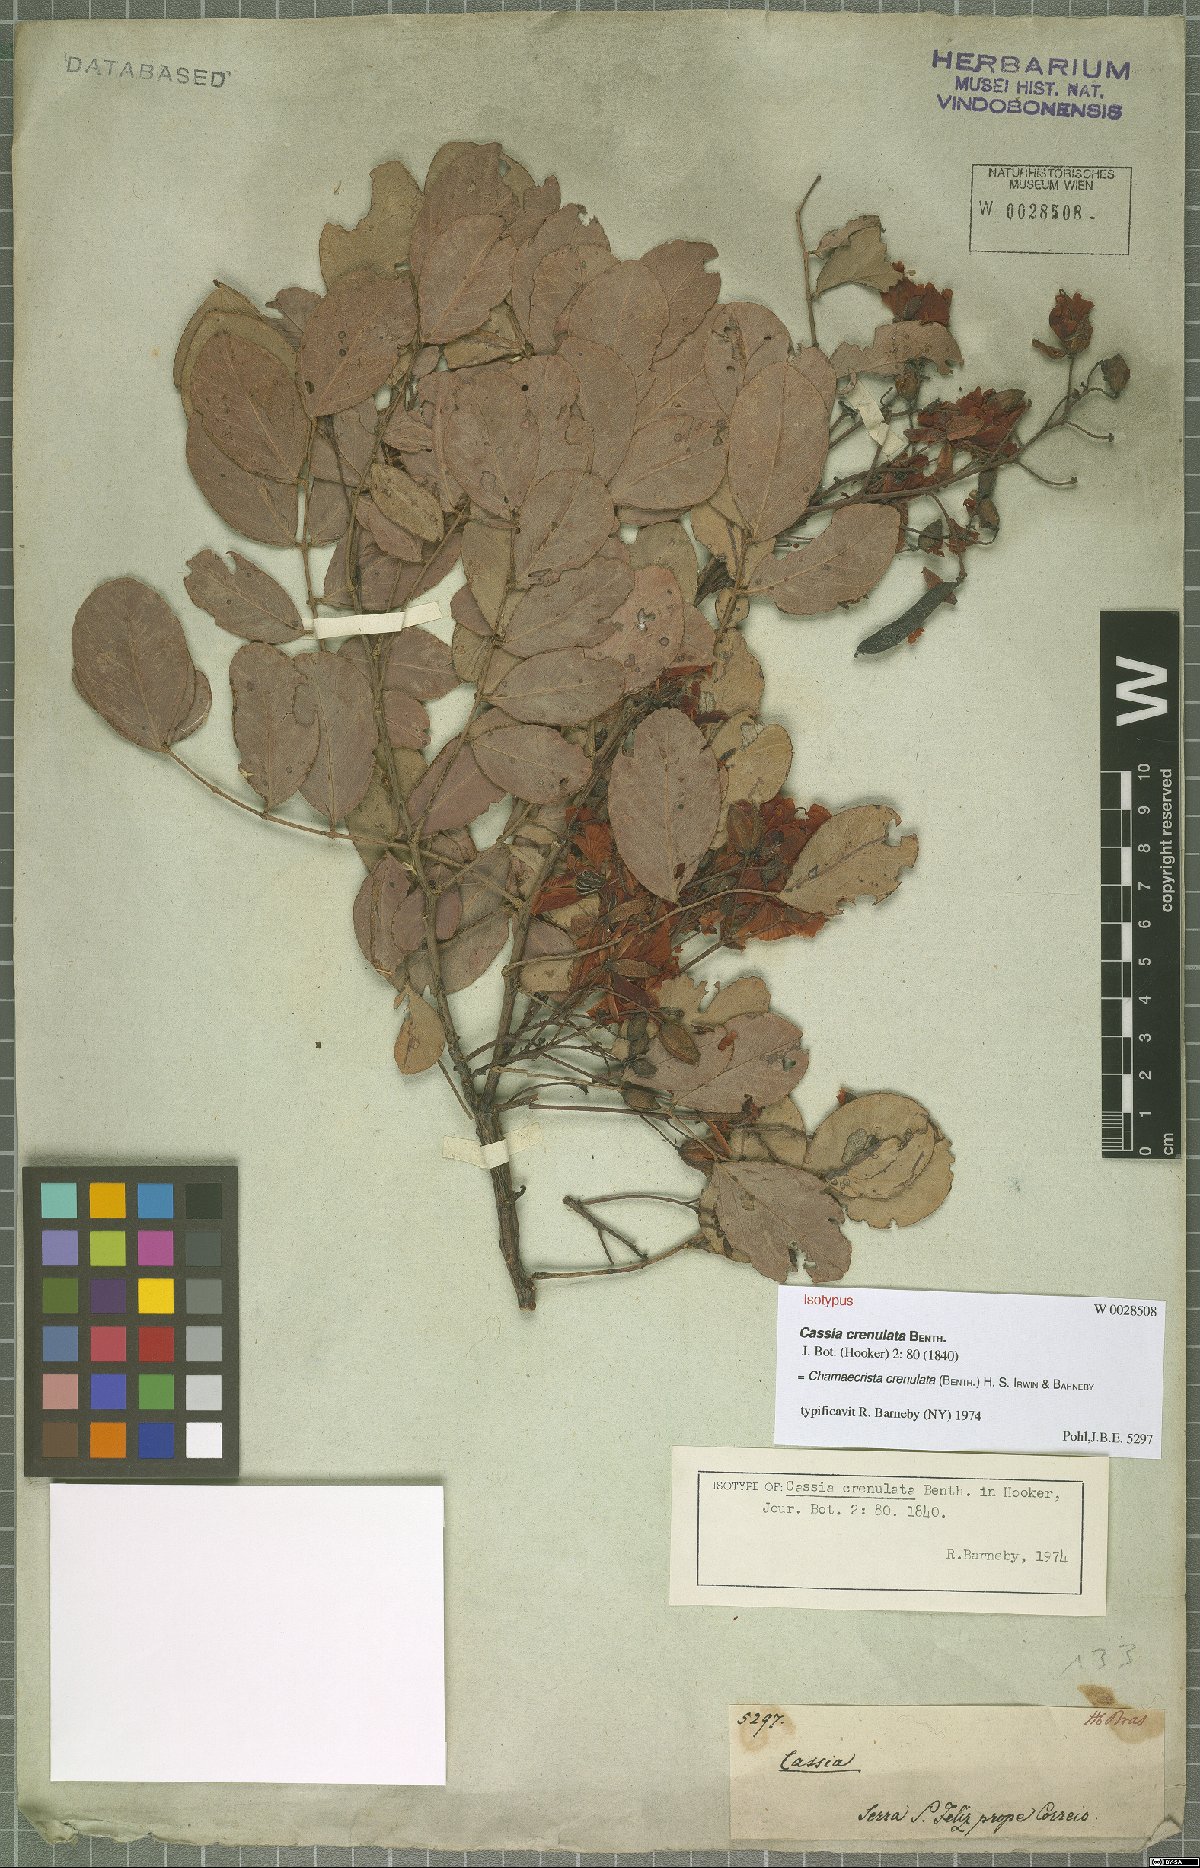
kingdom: Plantae
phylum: Tracheophyta
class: Magnoliopsida
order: Fabales
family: Fabaceae
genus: Chamaecrista
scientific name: Chamaecrista crenulata
